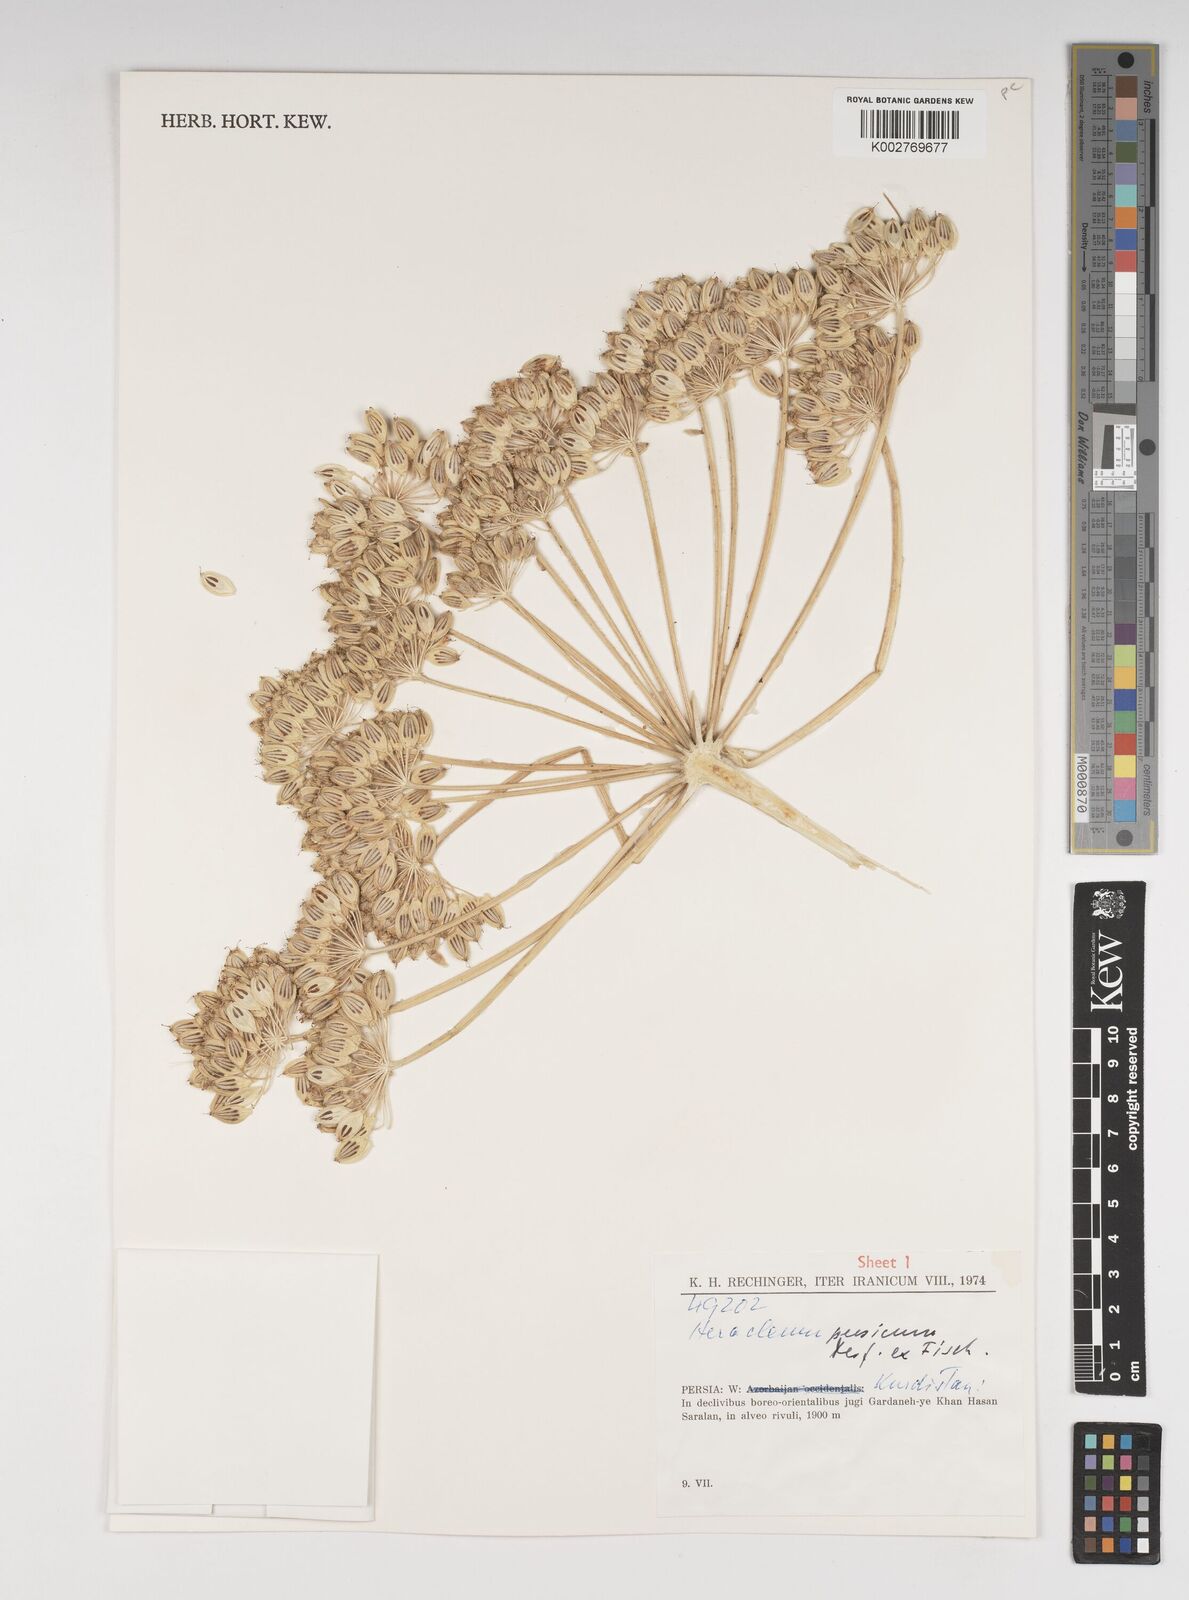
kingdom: Plantae
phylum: Tracheophyta
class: Magnoliopsida
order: Apiales
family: Apiaceae
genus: Heracleum
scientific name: Heracleum persicum
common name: Persian hogweed
